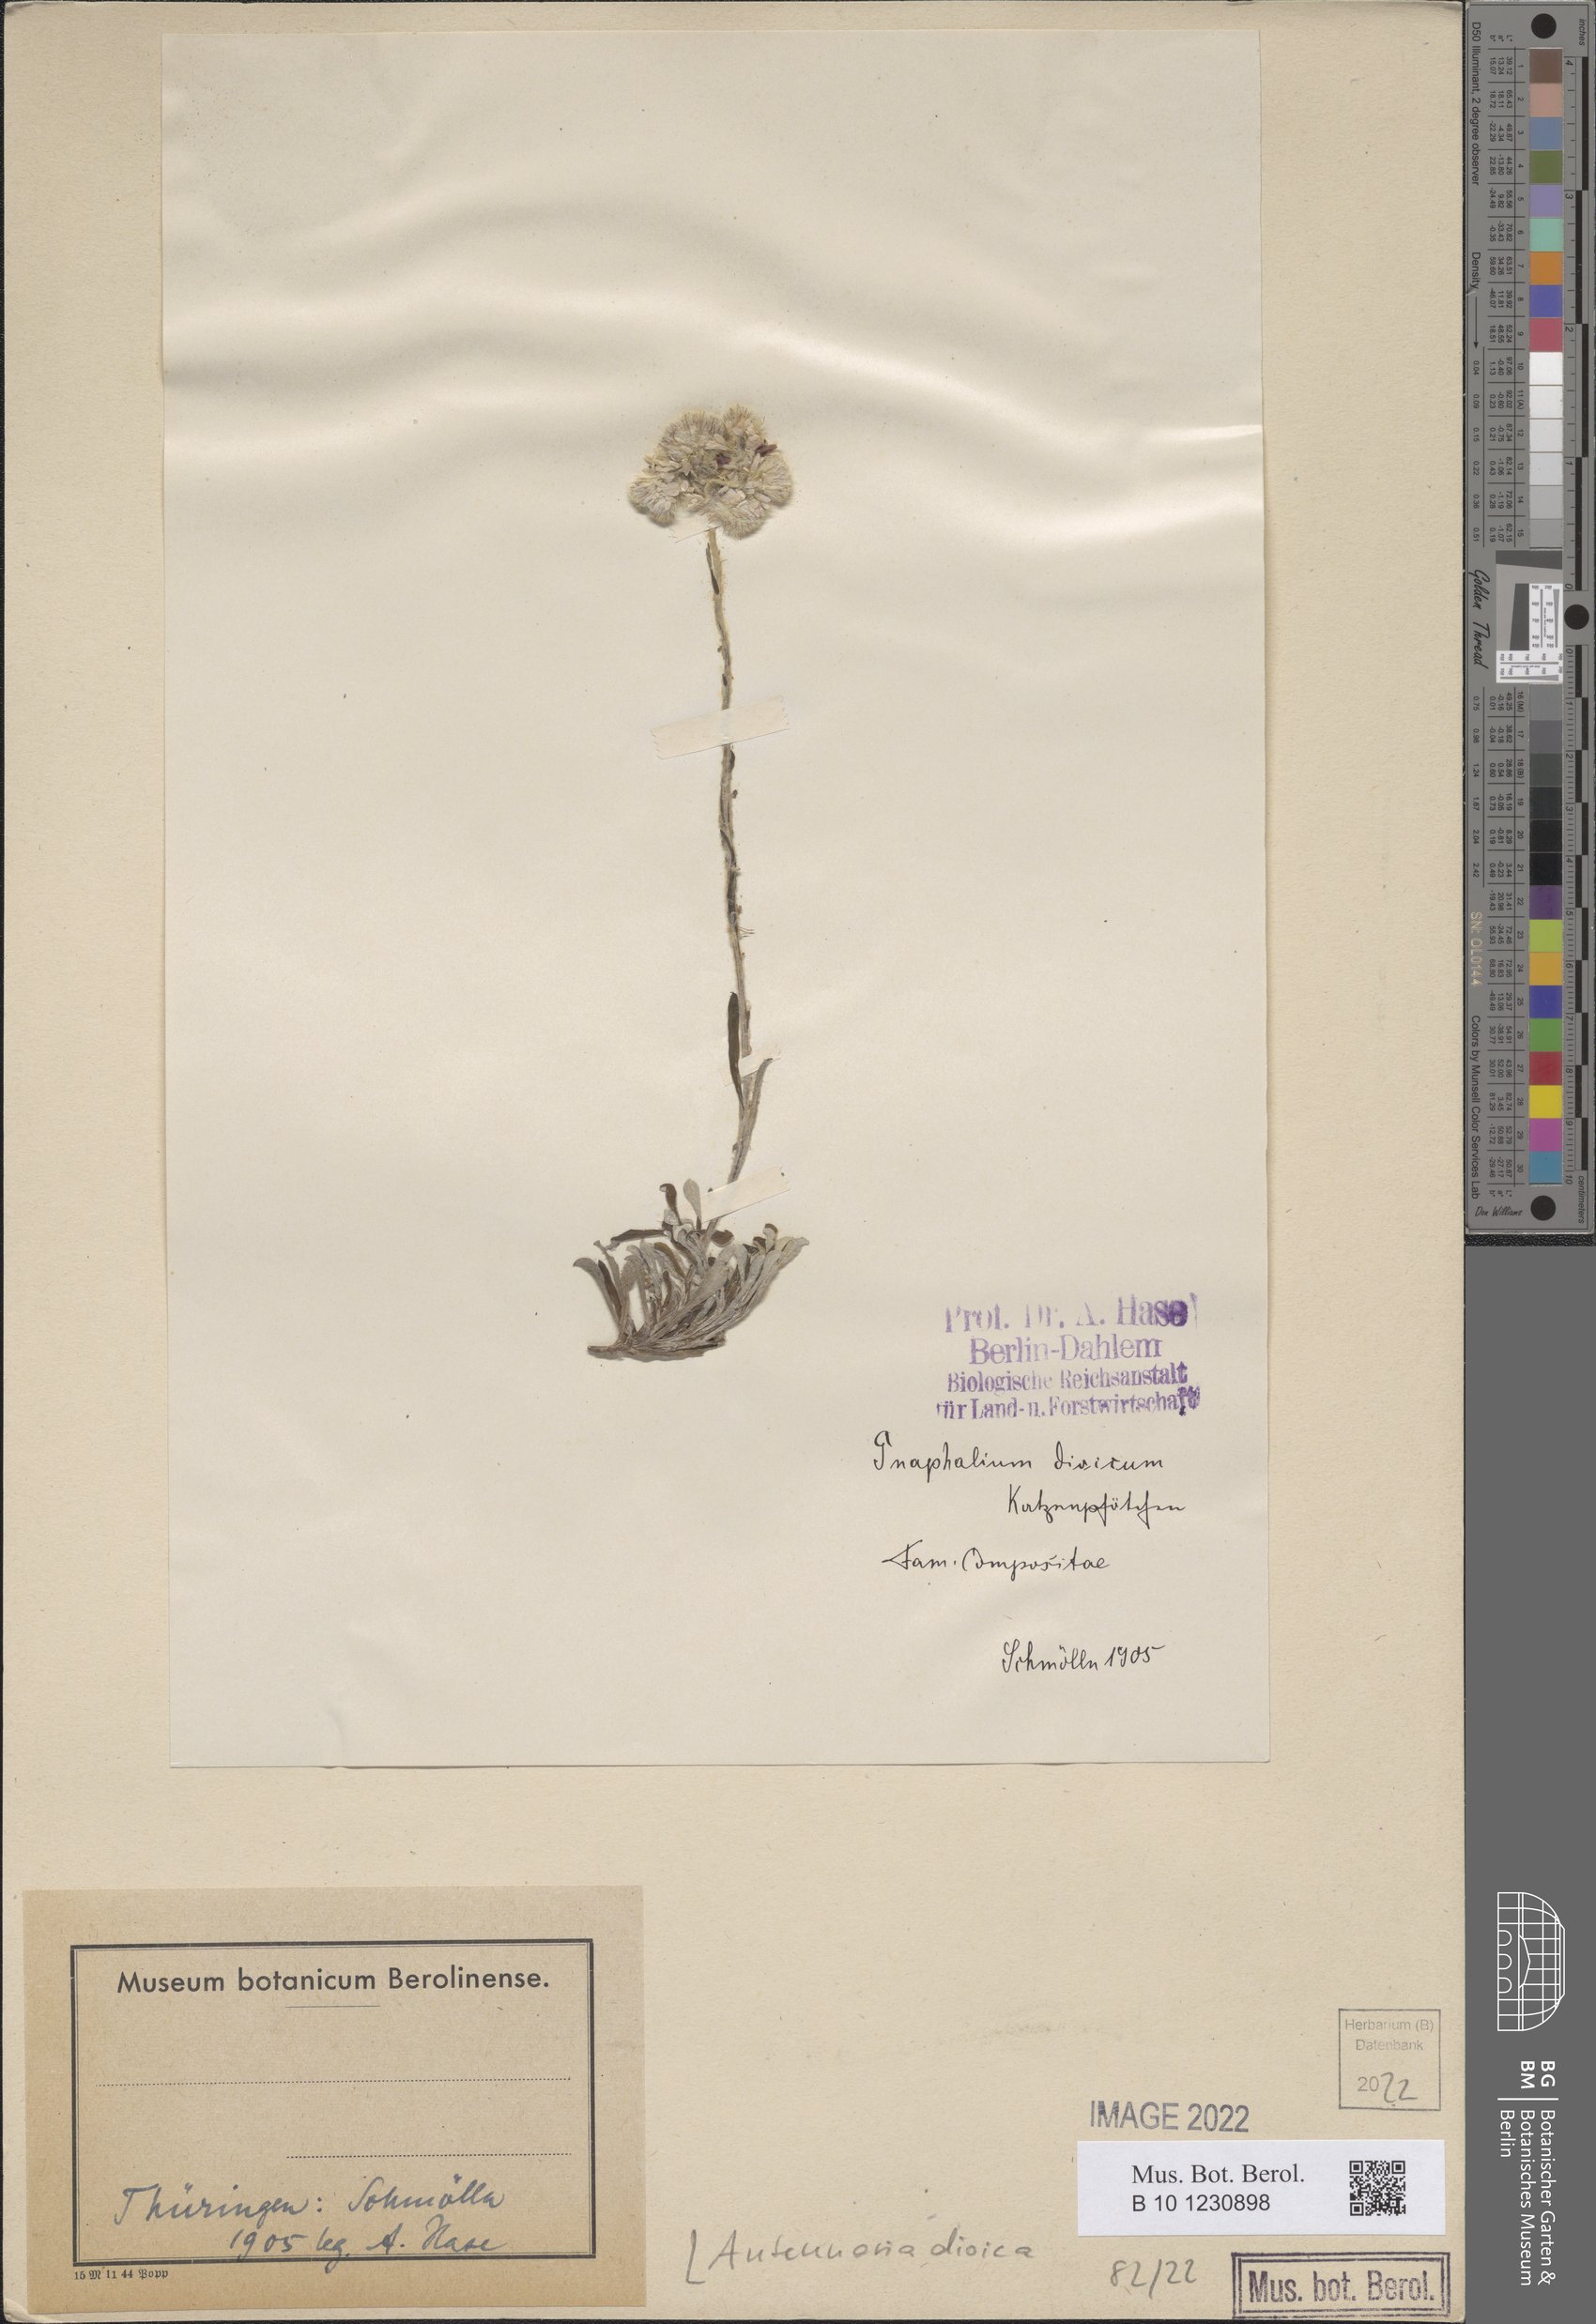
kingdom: Plantae
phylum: Tracheophyta
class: Magnoliopsida
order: Asterales
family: Asteraceae
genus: Antennaria
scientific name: Antennaria dioica
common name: Mountain everlasting
